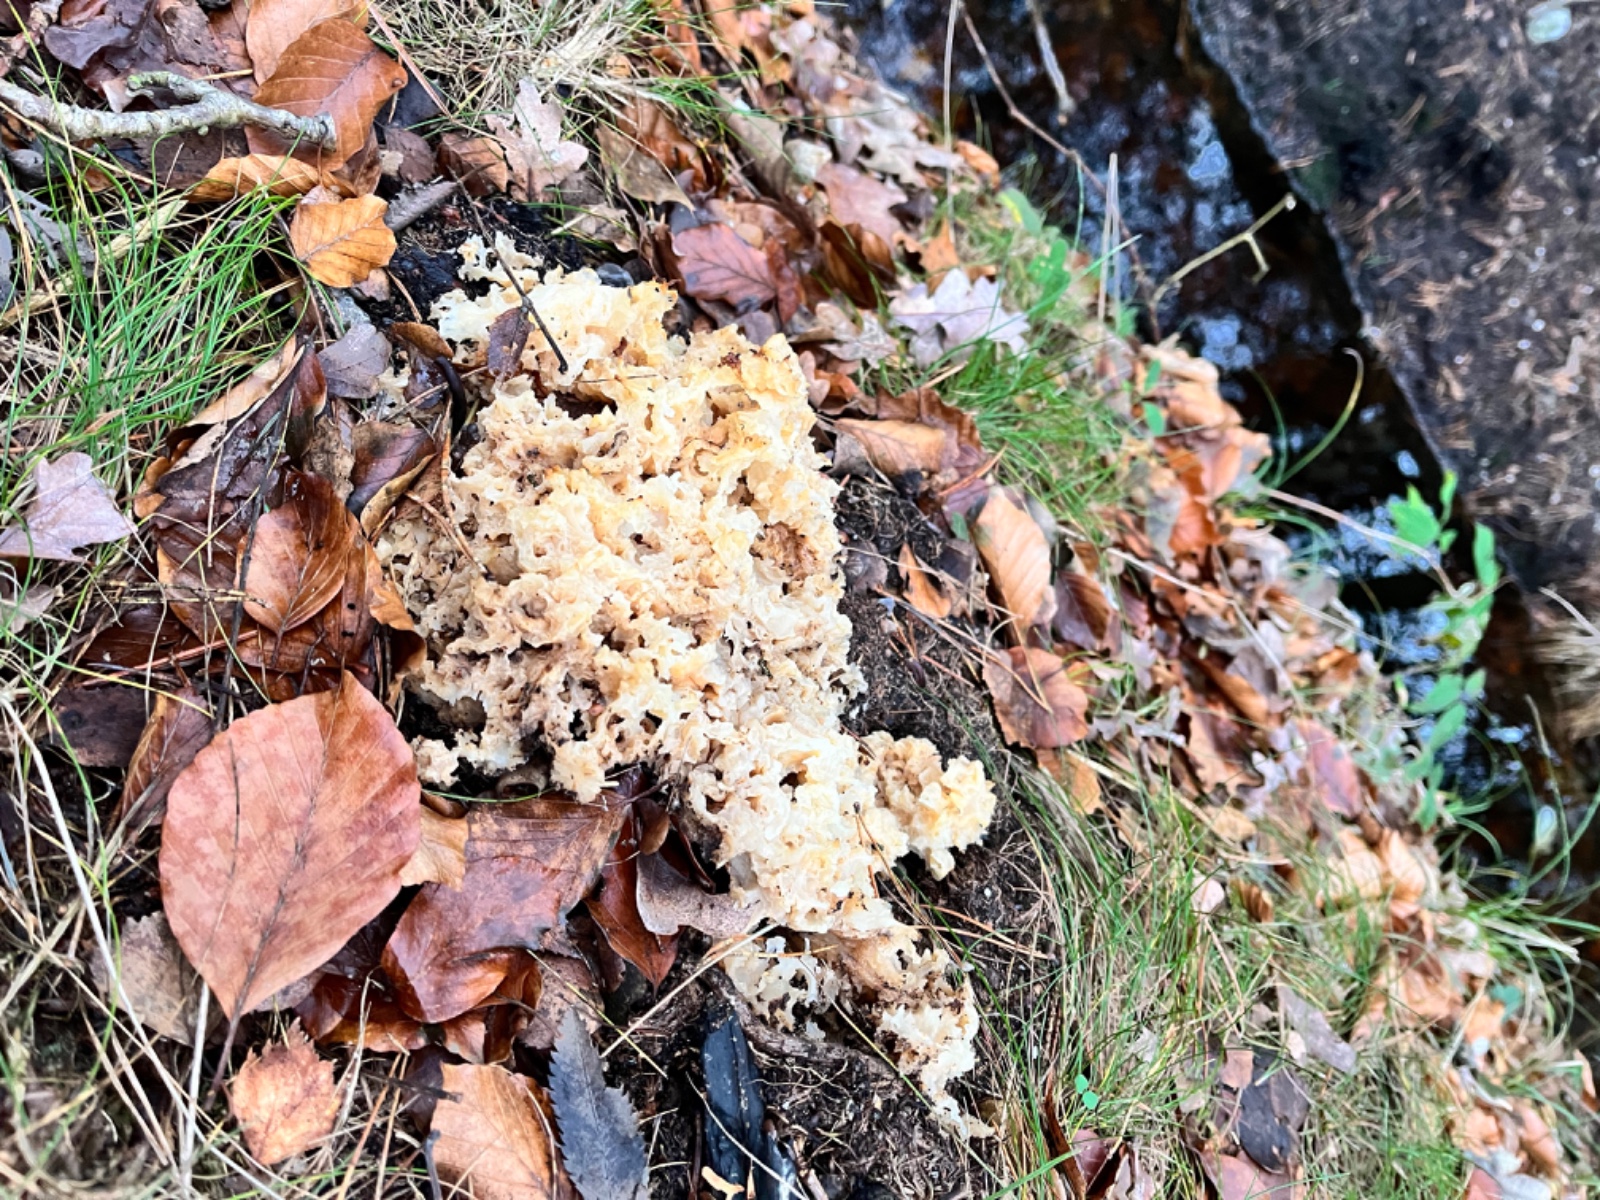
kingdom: Fungi
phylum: Basidiomycota
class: Agaricomycetes
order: Polyporales
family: Sparassidaceae
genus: Sparassis
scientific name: Sparassis crispa
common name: kruset blomkålssvamp
